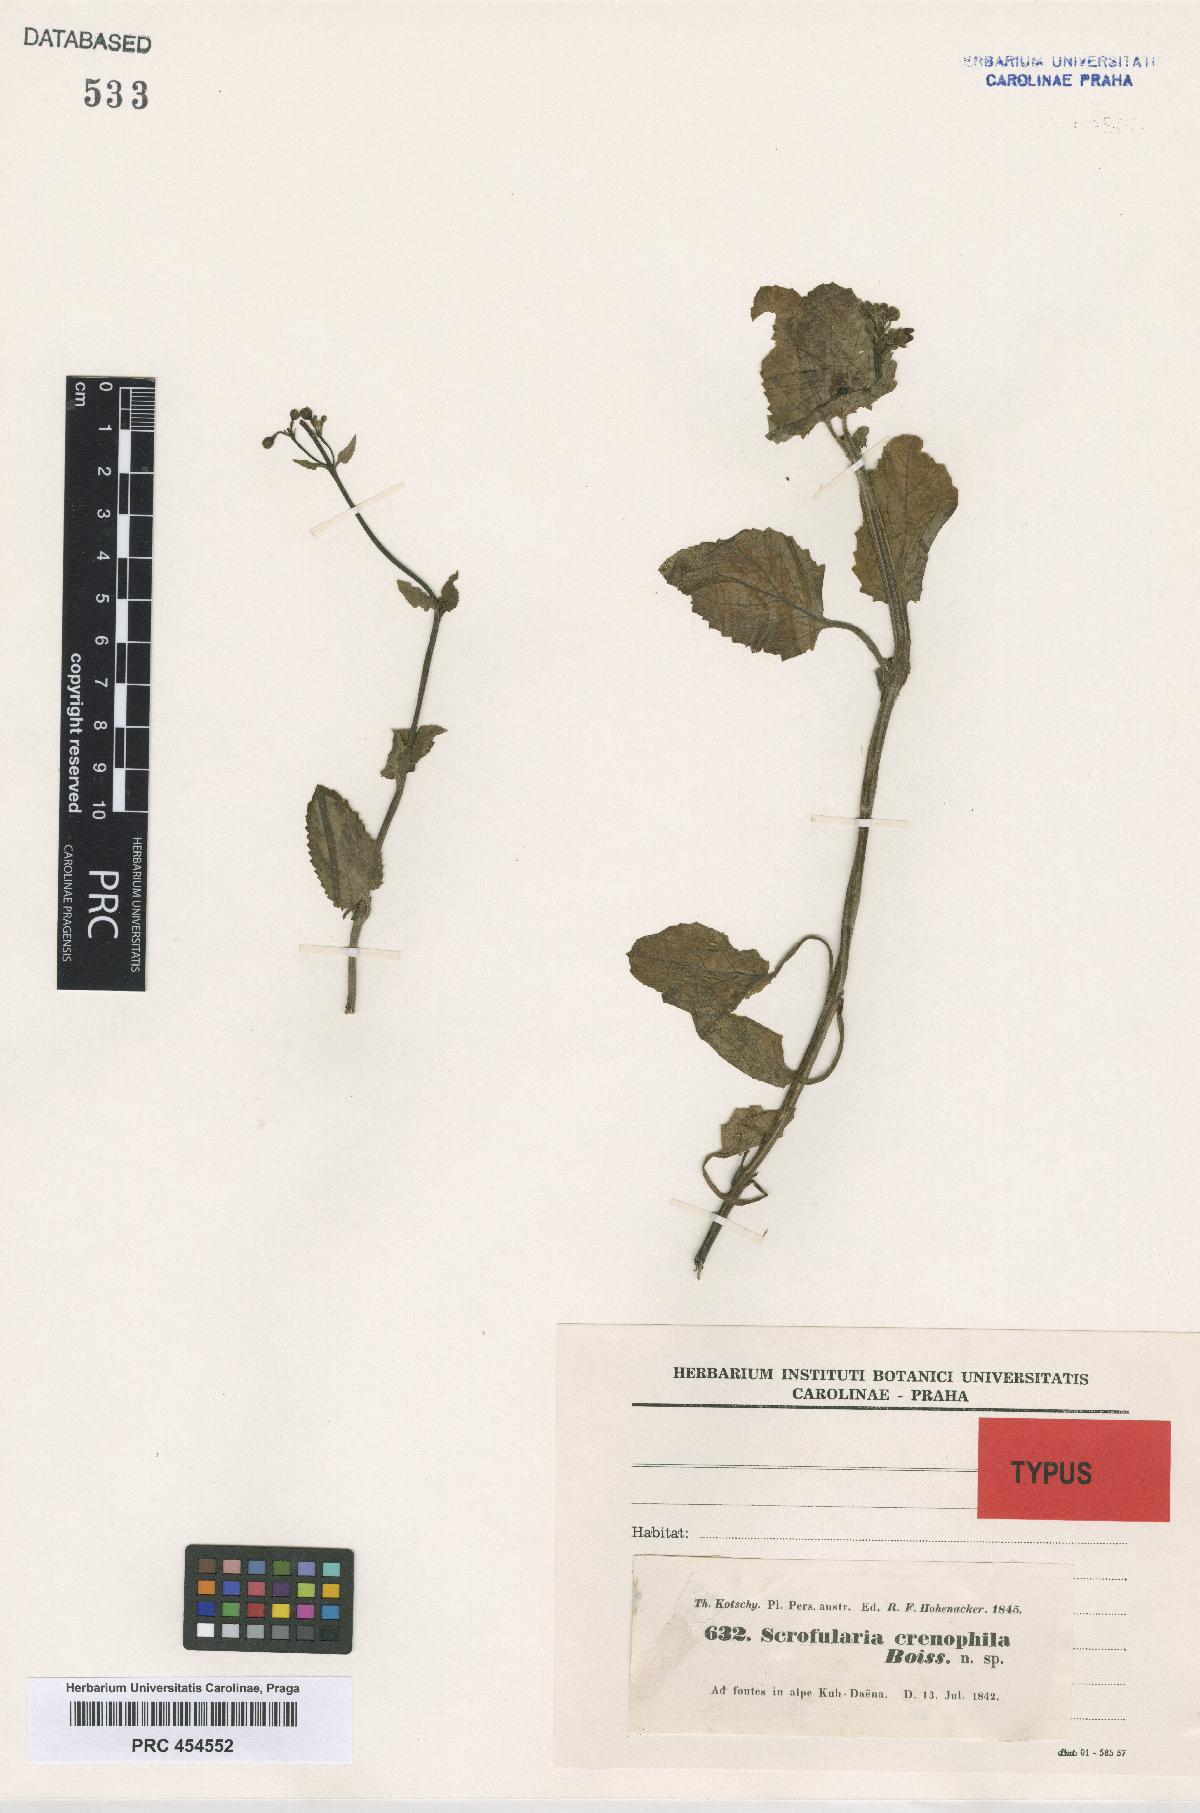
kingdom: Plantae
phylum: Tracheophyta
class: Magnoliopsida
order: Lamiales
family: Scrophulariaceae
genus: Scrophularia
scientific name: Scrophularia crenophila
